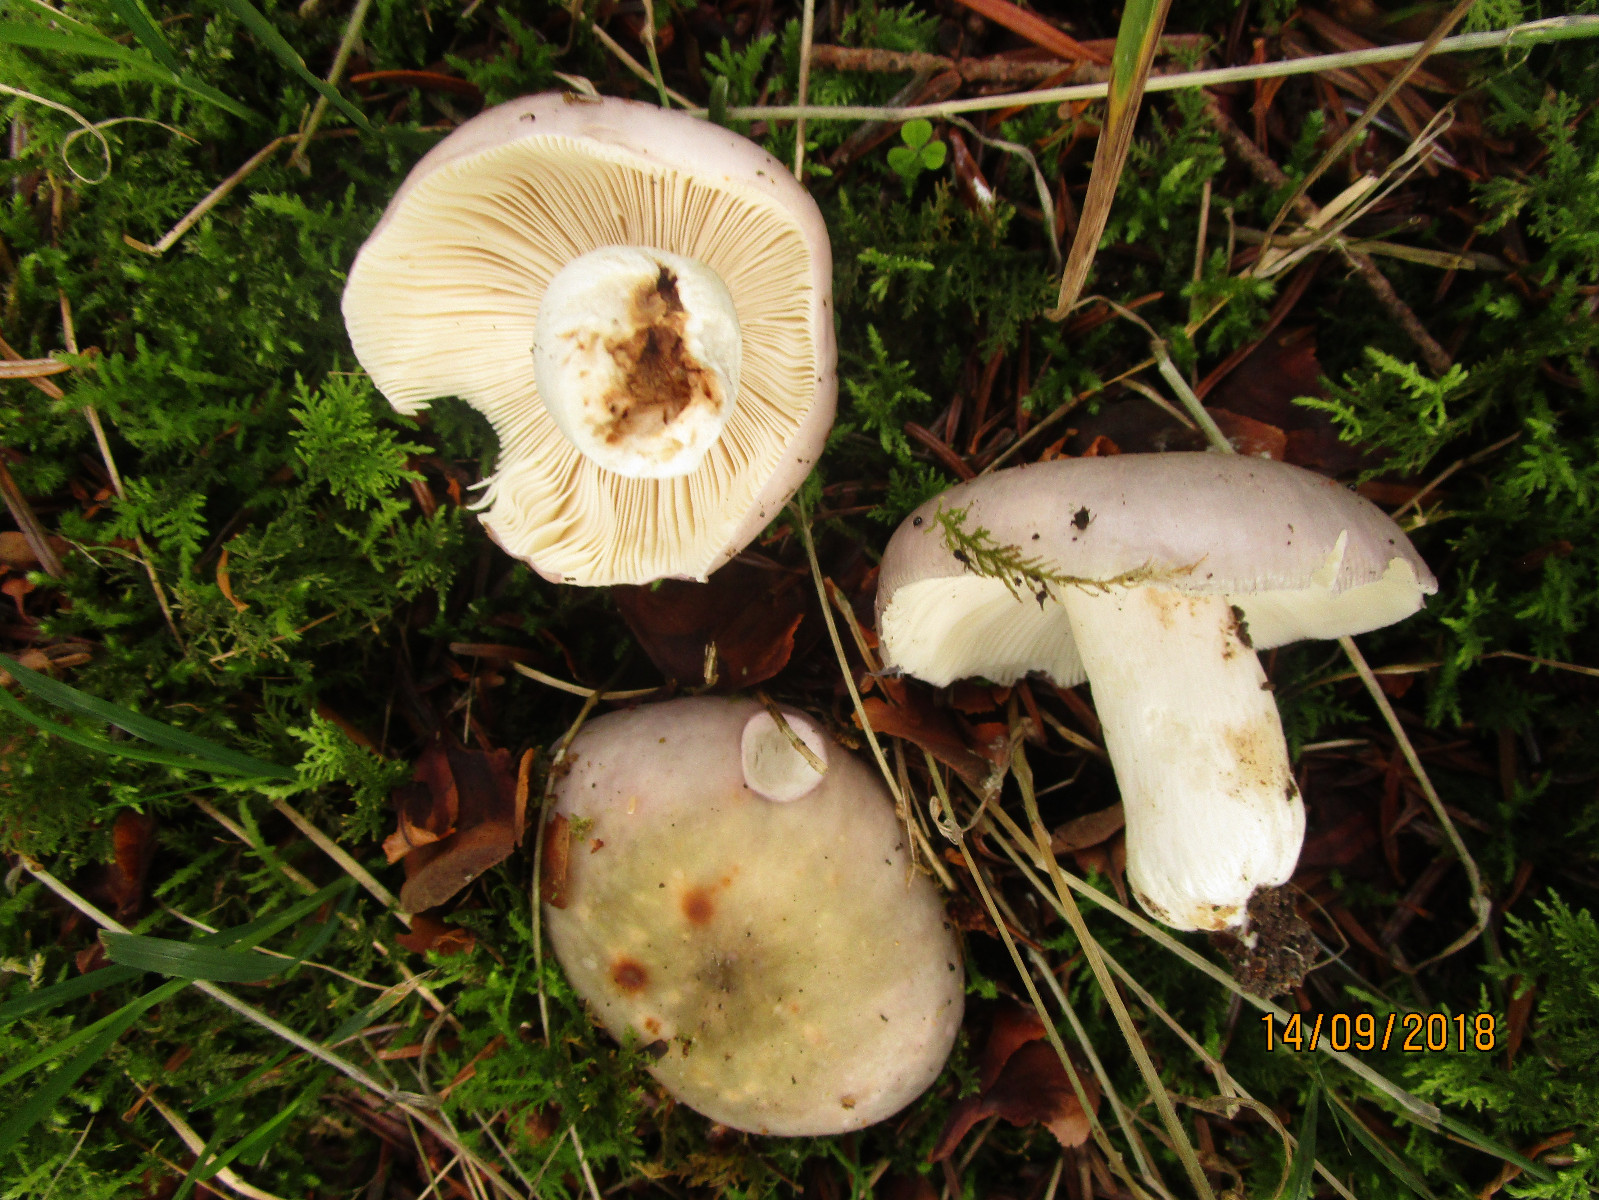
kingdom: Fungi
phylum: Basidiomycota
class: Agaricomycetes
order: Russulales
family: Russulaceae
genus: Russula
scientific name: Russula grisea
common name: grålig skørhat
